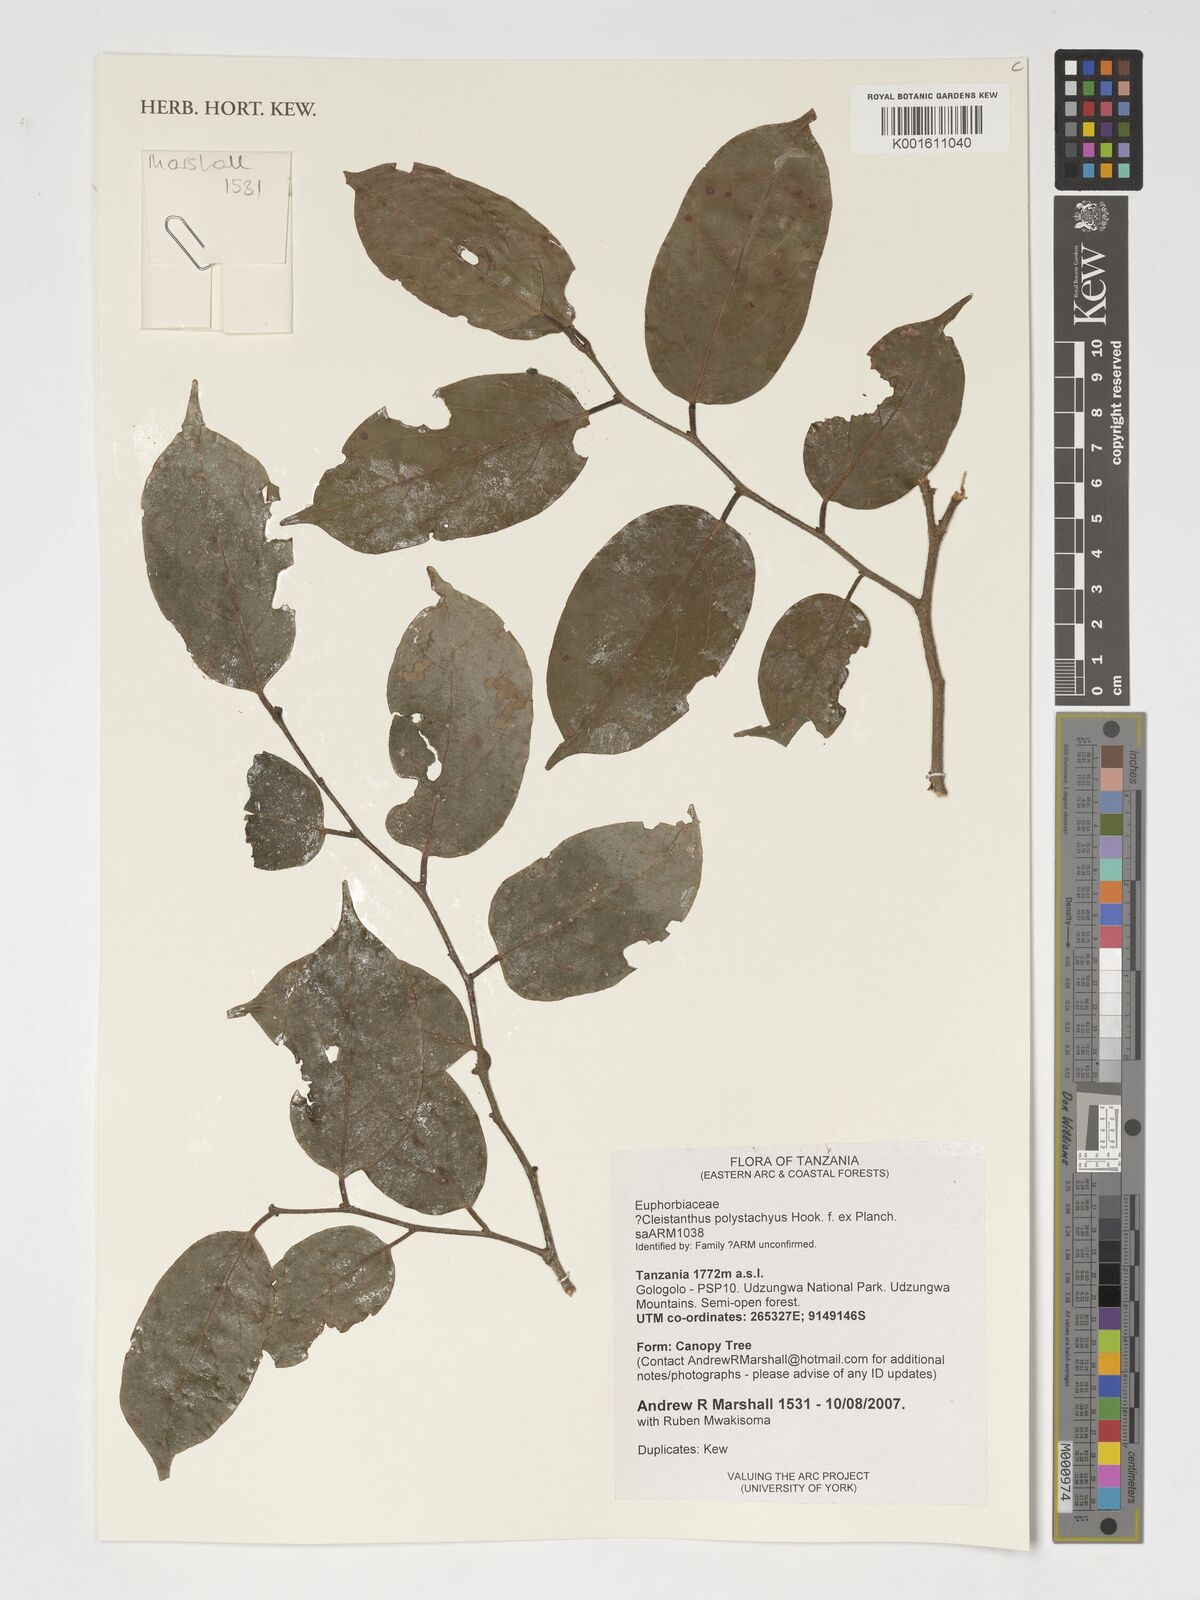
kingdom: Plantae
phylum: Tracheophyta
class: Magnoliopsida
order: Malpighiales
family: Phyllanthaceae
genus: Cleistanthus
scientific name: Cleistanthus polystachyus
